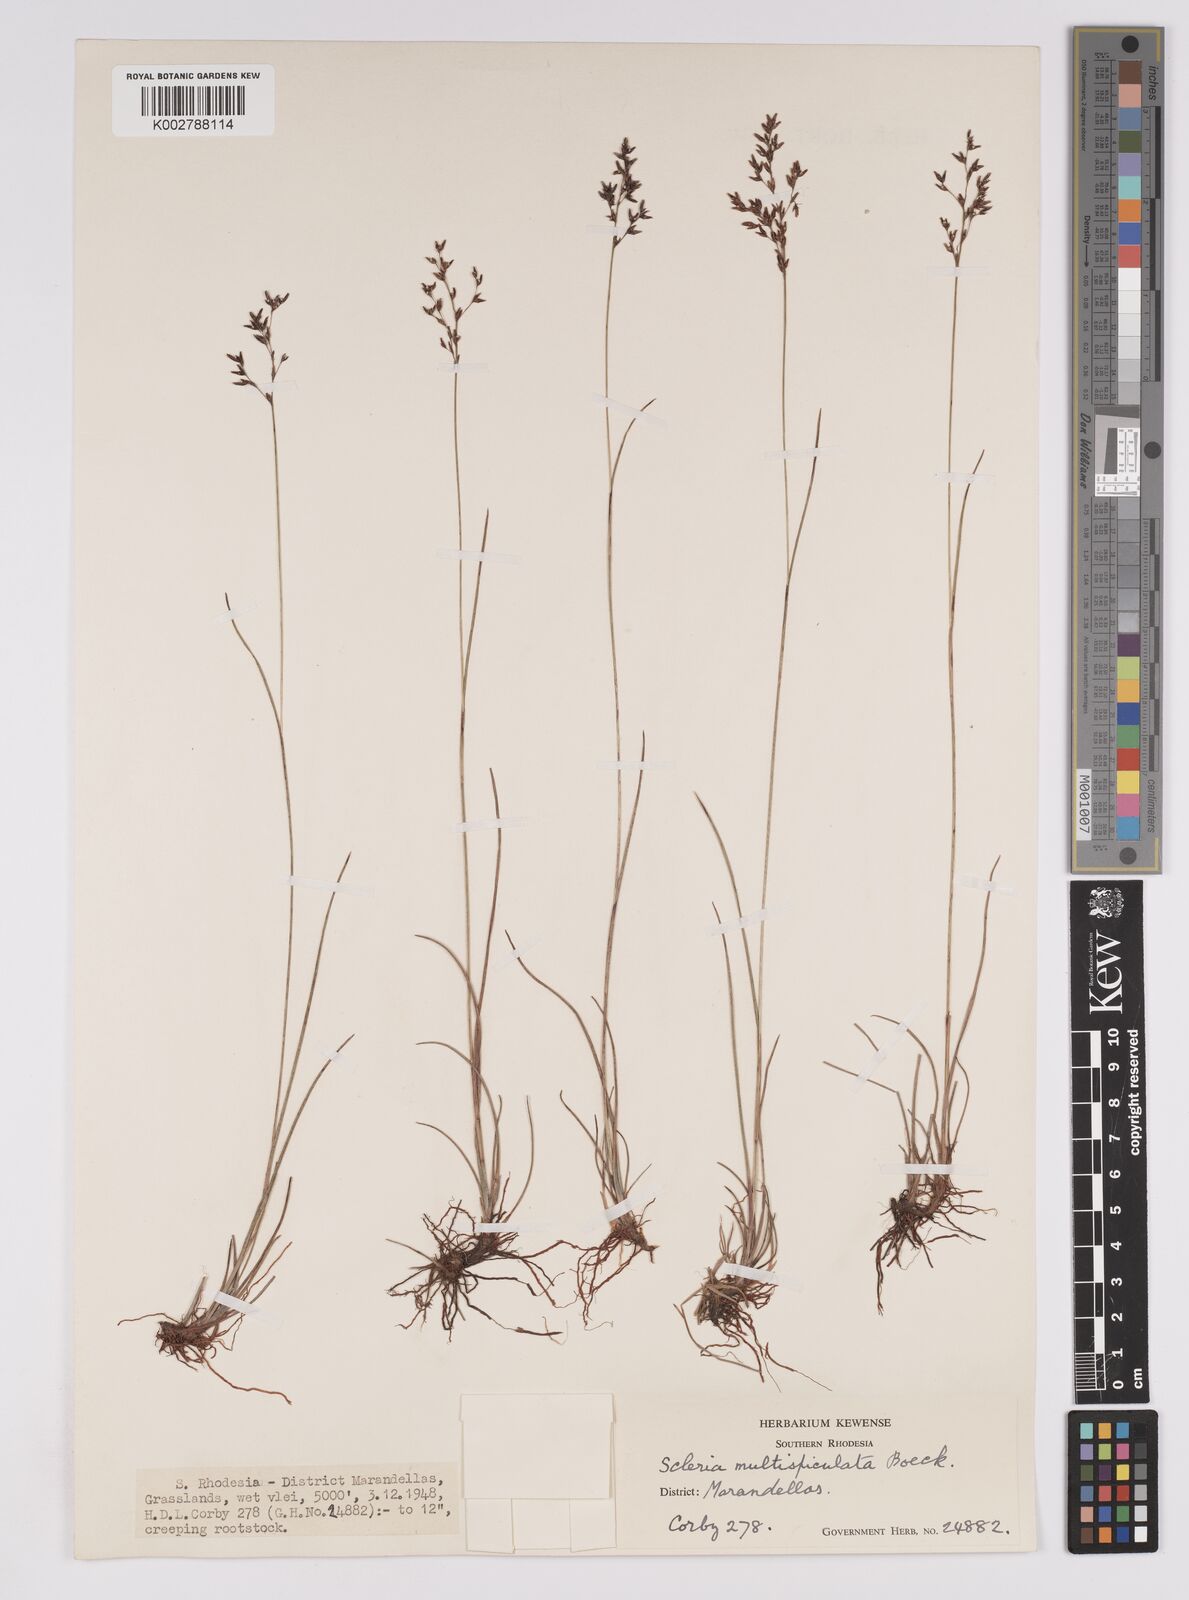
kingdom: Plantae
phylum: Tracheophyta
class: Liliopsida
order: Poales
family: Cyperaceae
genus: Scleria
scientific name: Scleria pooides
